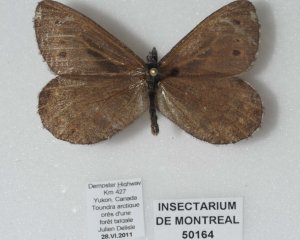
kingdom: Animalia
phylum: Arthropoda
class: Insecta
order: Lepidoptera
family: Nymphalidae
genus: Oeneis
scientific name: Oeneis jutta
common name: Jutta Arctic
